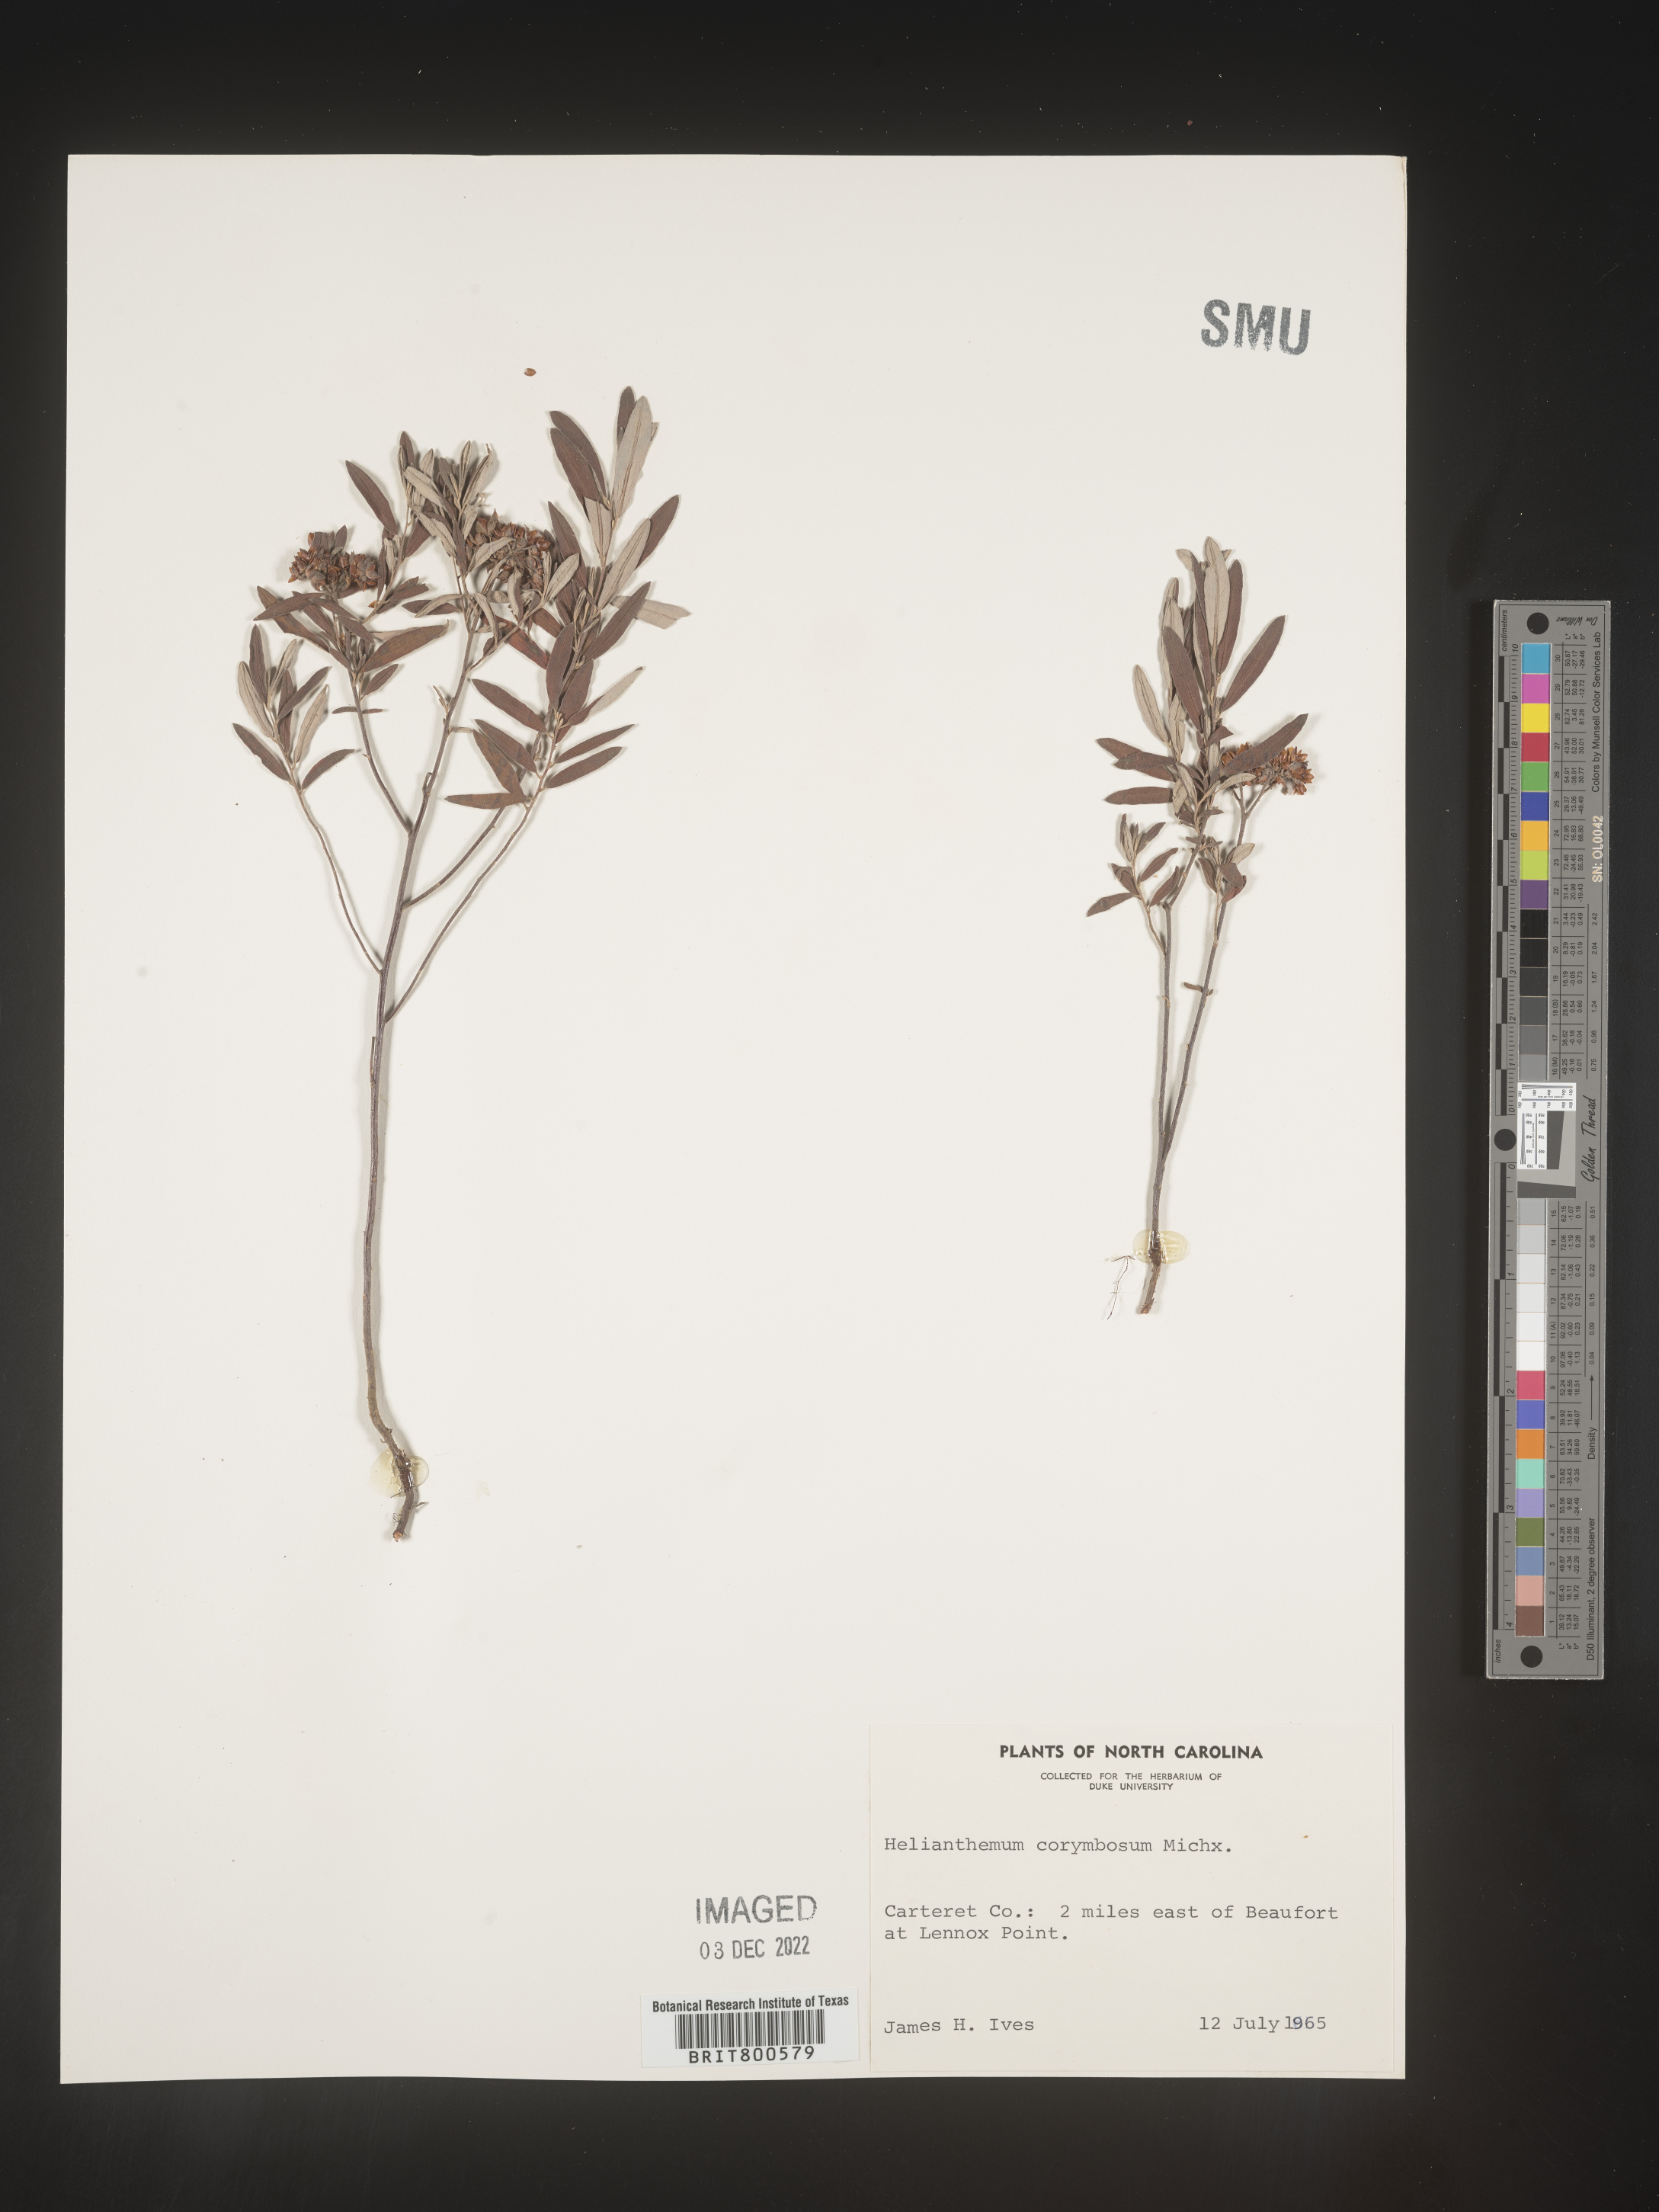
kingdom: Plantae
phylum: Tracheophyta
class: Magnoliopsida
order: Malvales
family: Cistaceae
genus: Crocanthemum
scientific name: Crocanthemum corymbosum
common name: Pinebarren sun-rose
